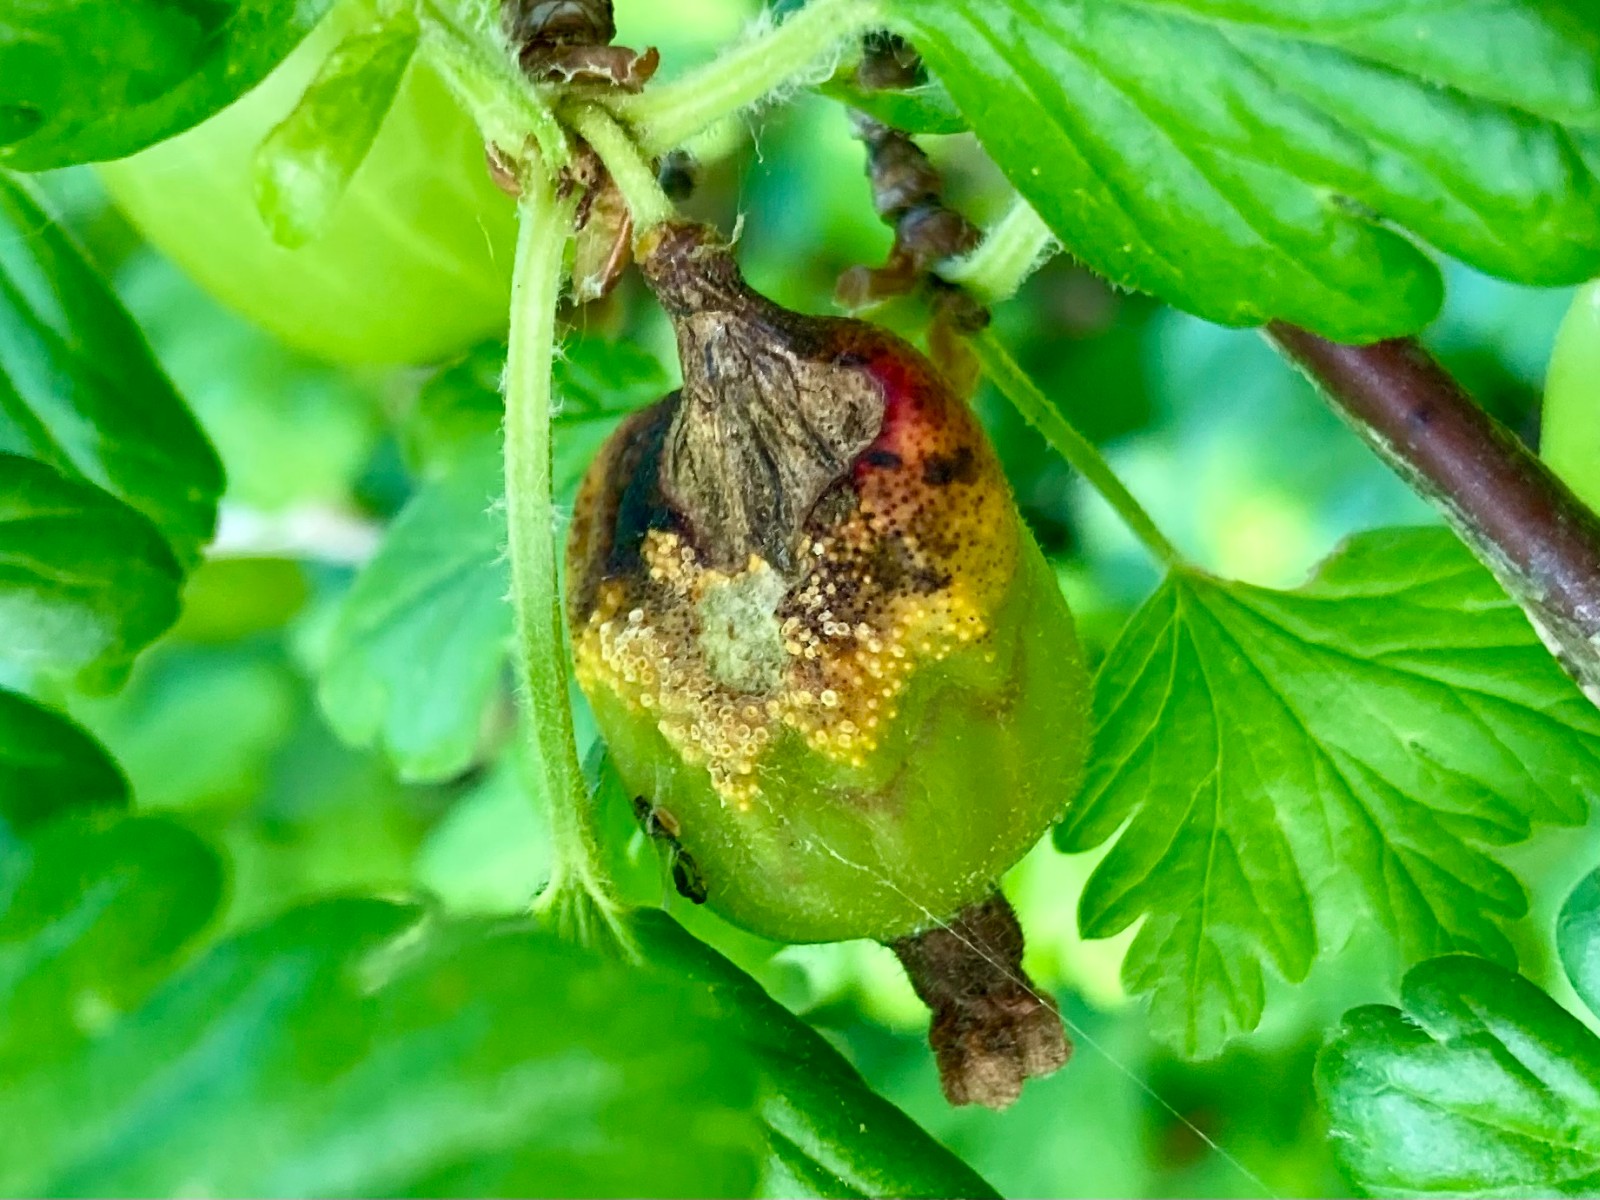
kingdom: Fungi
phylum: Basidiomycota
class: Pucciniomycetes
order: Pucciniales
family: Pucciniaceae
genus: Puccinia
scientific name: Puccinia caricina
